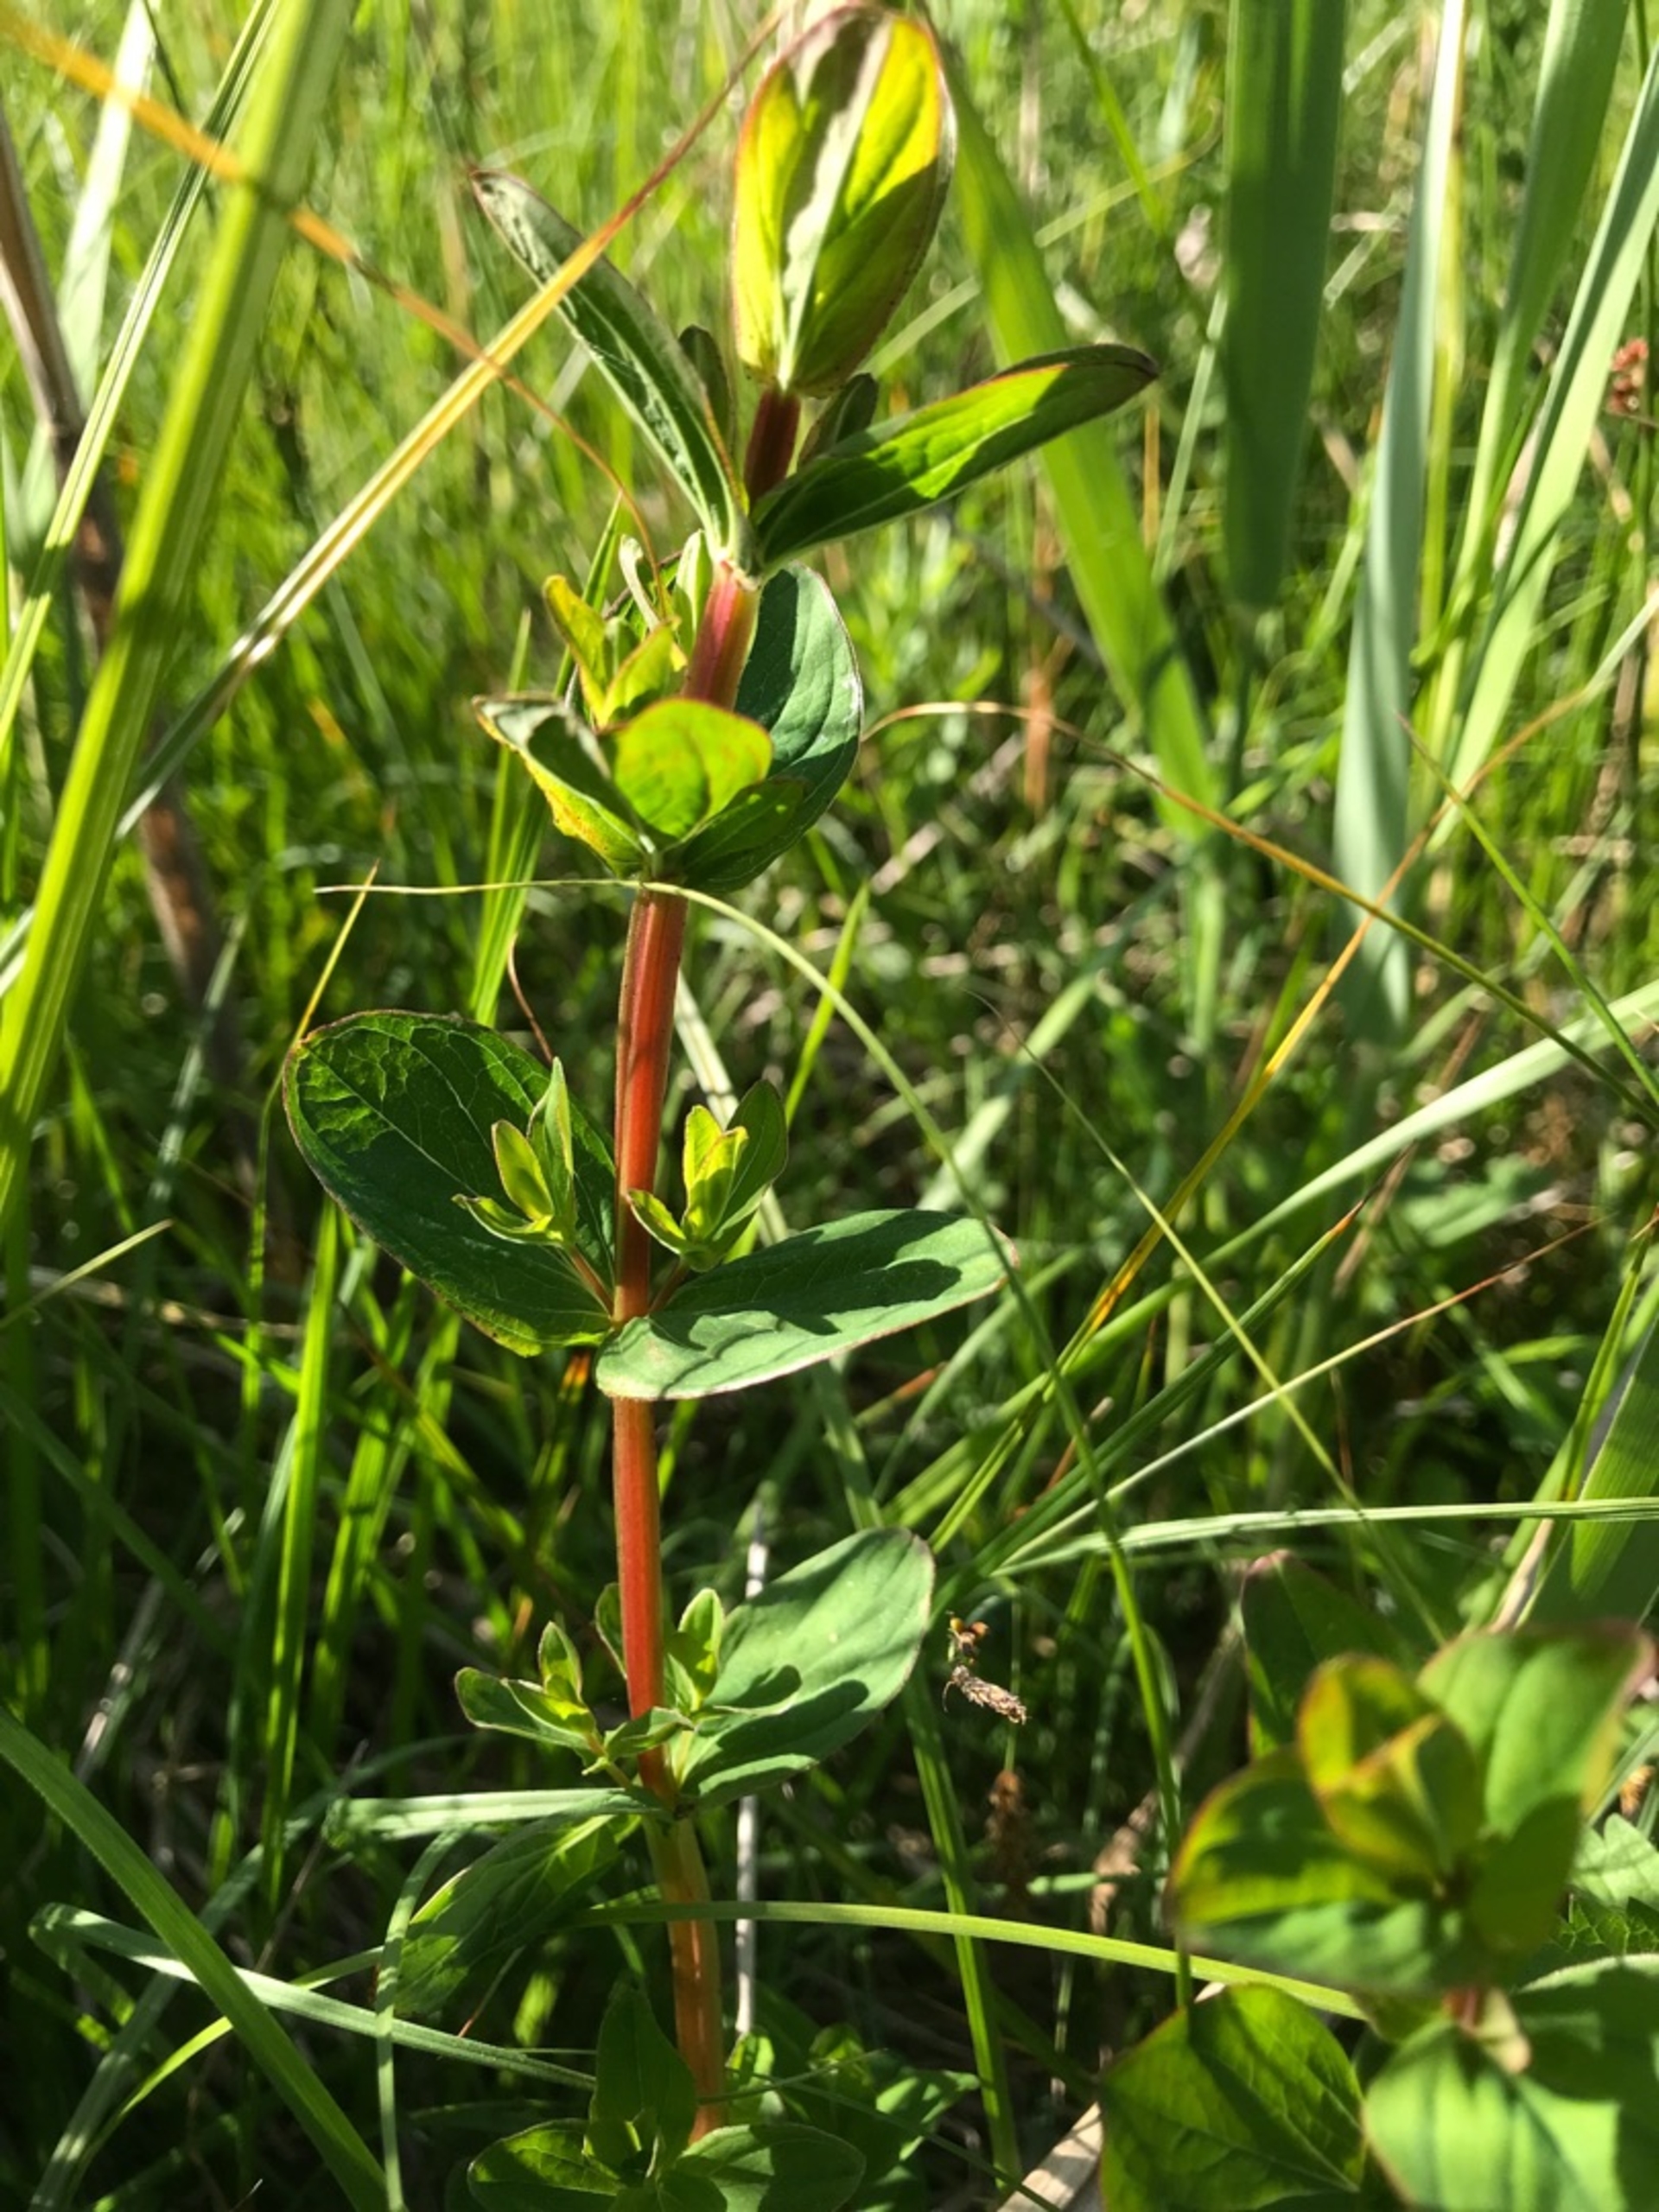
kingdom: Plantae
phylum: Tracheophyta
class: Magnoliopsida
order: Malpighiales
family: Hypericaceae
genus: Hypericum
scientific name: Hypericum tetrapterum
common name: Vinget perikon
